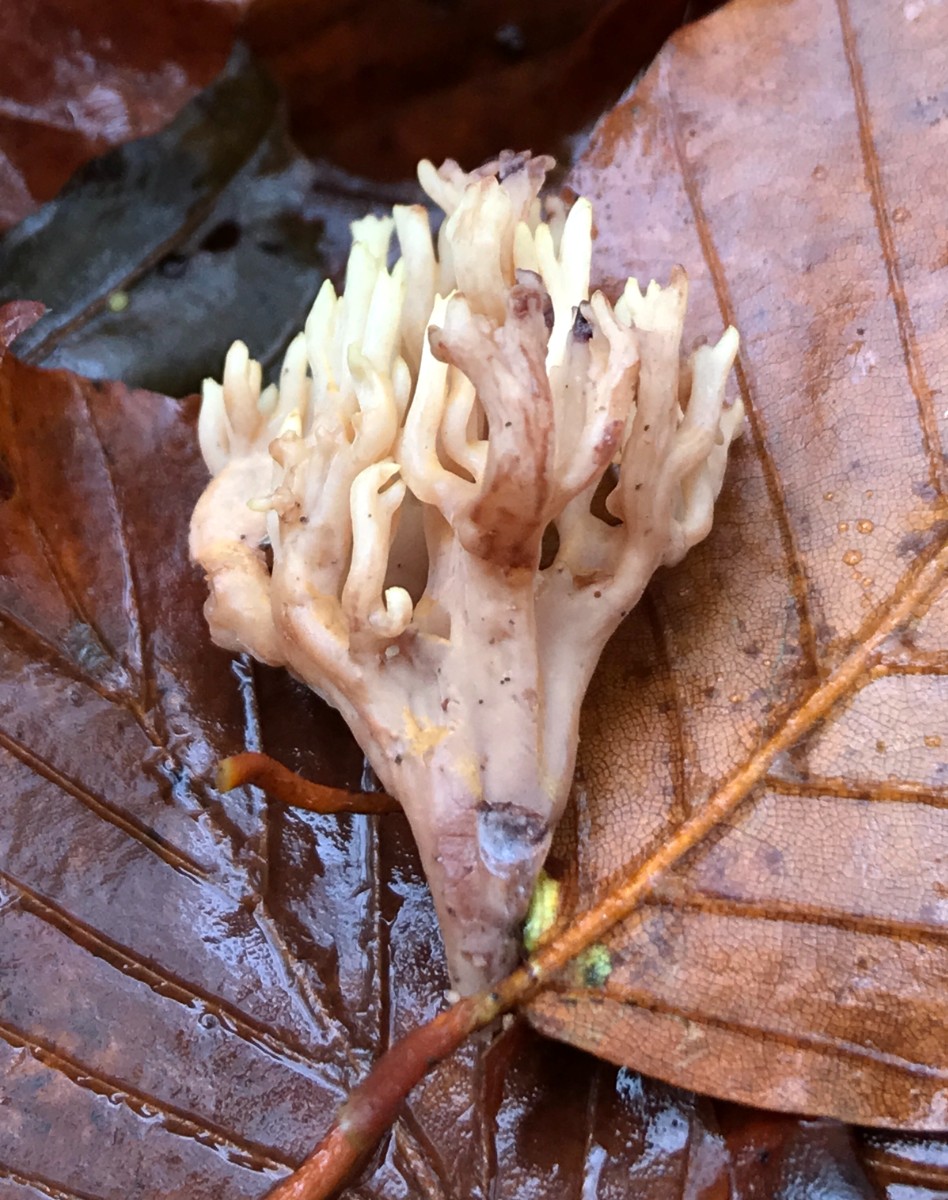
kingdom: Fungi
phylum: Basidiomycota
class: Agaricomycetes
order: Gomphales
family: Gomphaceae
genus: Ramaria
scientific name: Ramaria stricta
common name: rank koralsvamp
